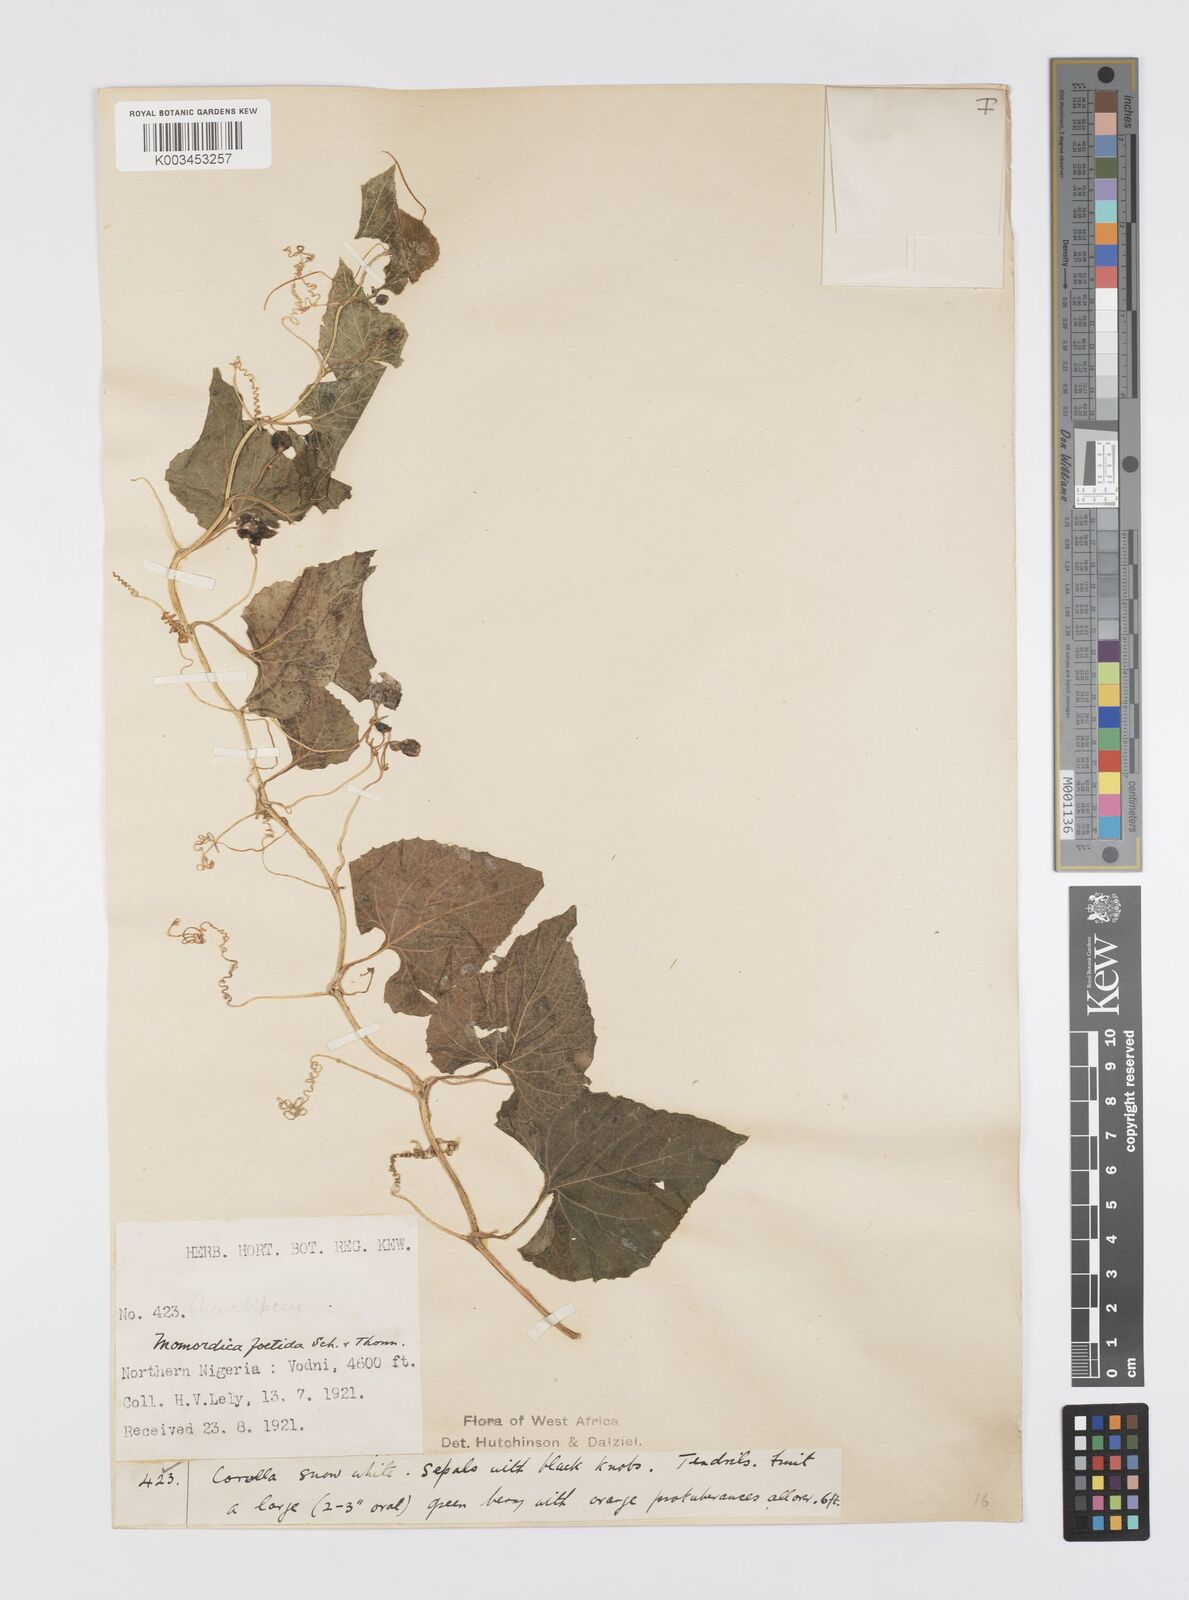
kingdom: Plantae
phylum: Tracheophyta
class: Magnoliopsida
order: Cucurbitales
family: Cucurbitaceae
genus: Momordica
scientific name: Momordica foetida
